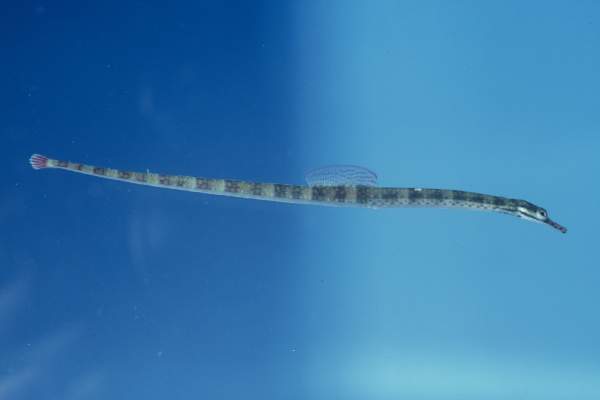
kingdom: Animalia
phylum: Chordata
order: Syngnathiformes
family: Syngnathidae
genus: Corythoichthys
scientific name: Corythoichthys flavofasciatus
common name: Banded pipefish
